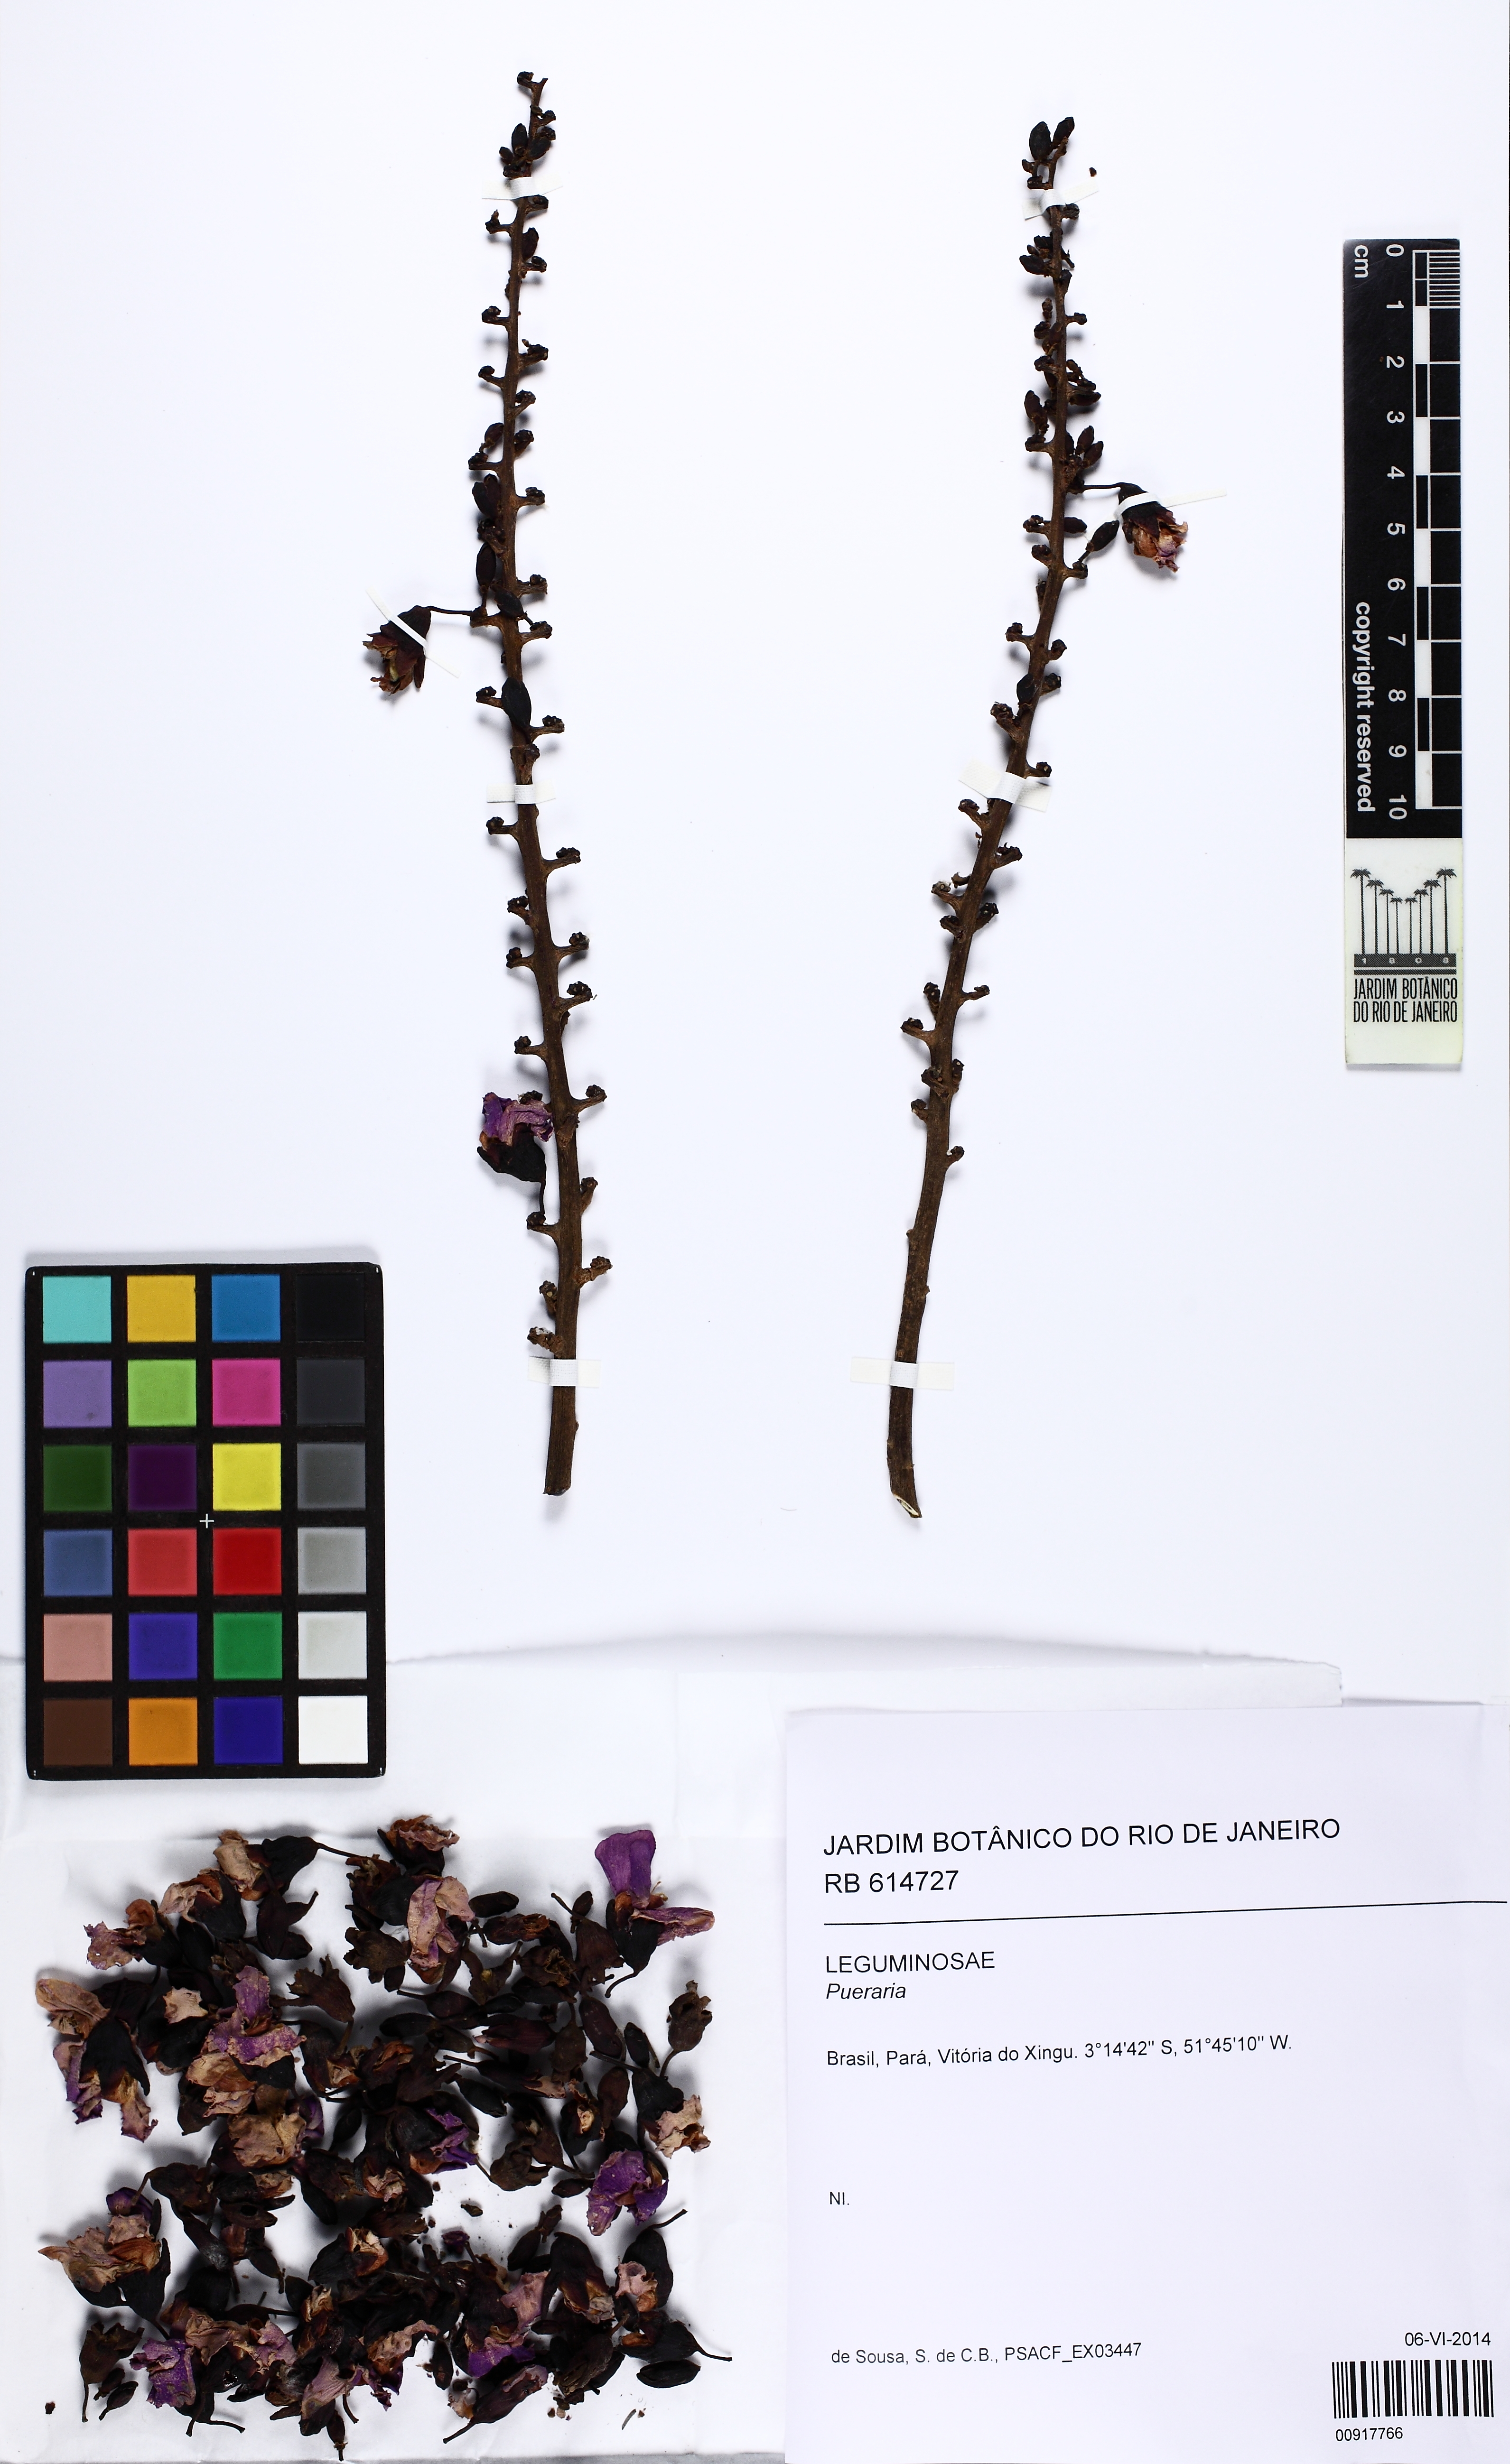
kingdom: Plantae
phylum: Tracheophyta
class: Magnoliopsida
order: Fabales
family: Fabaceae
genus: Pueraria
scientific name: Pueraria
